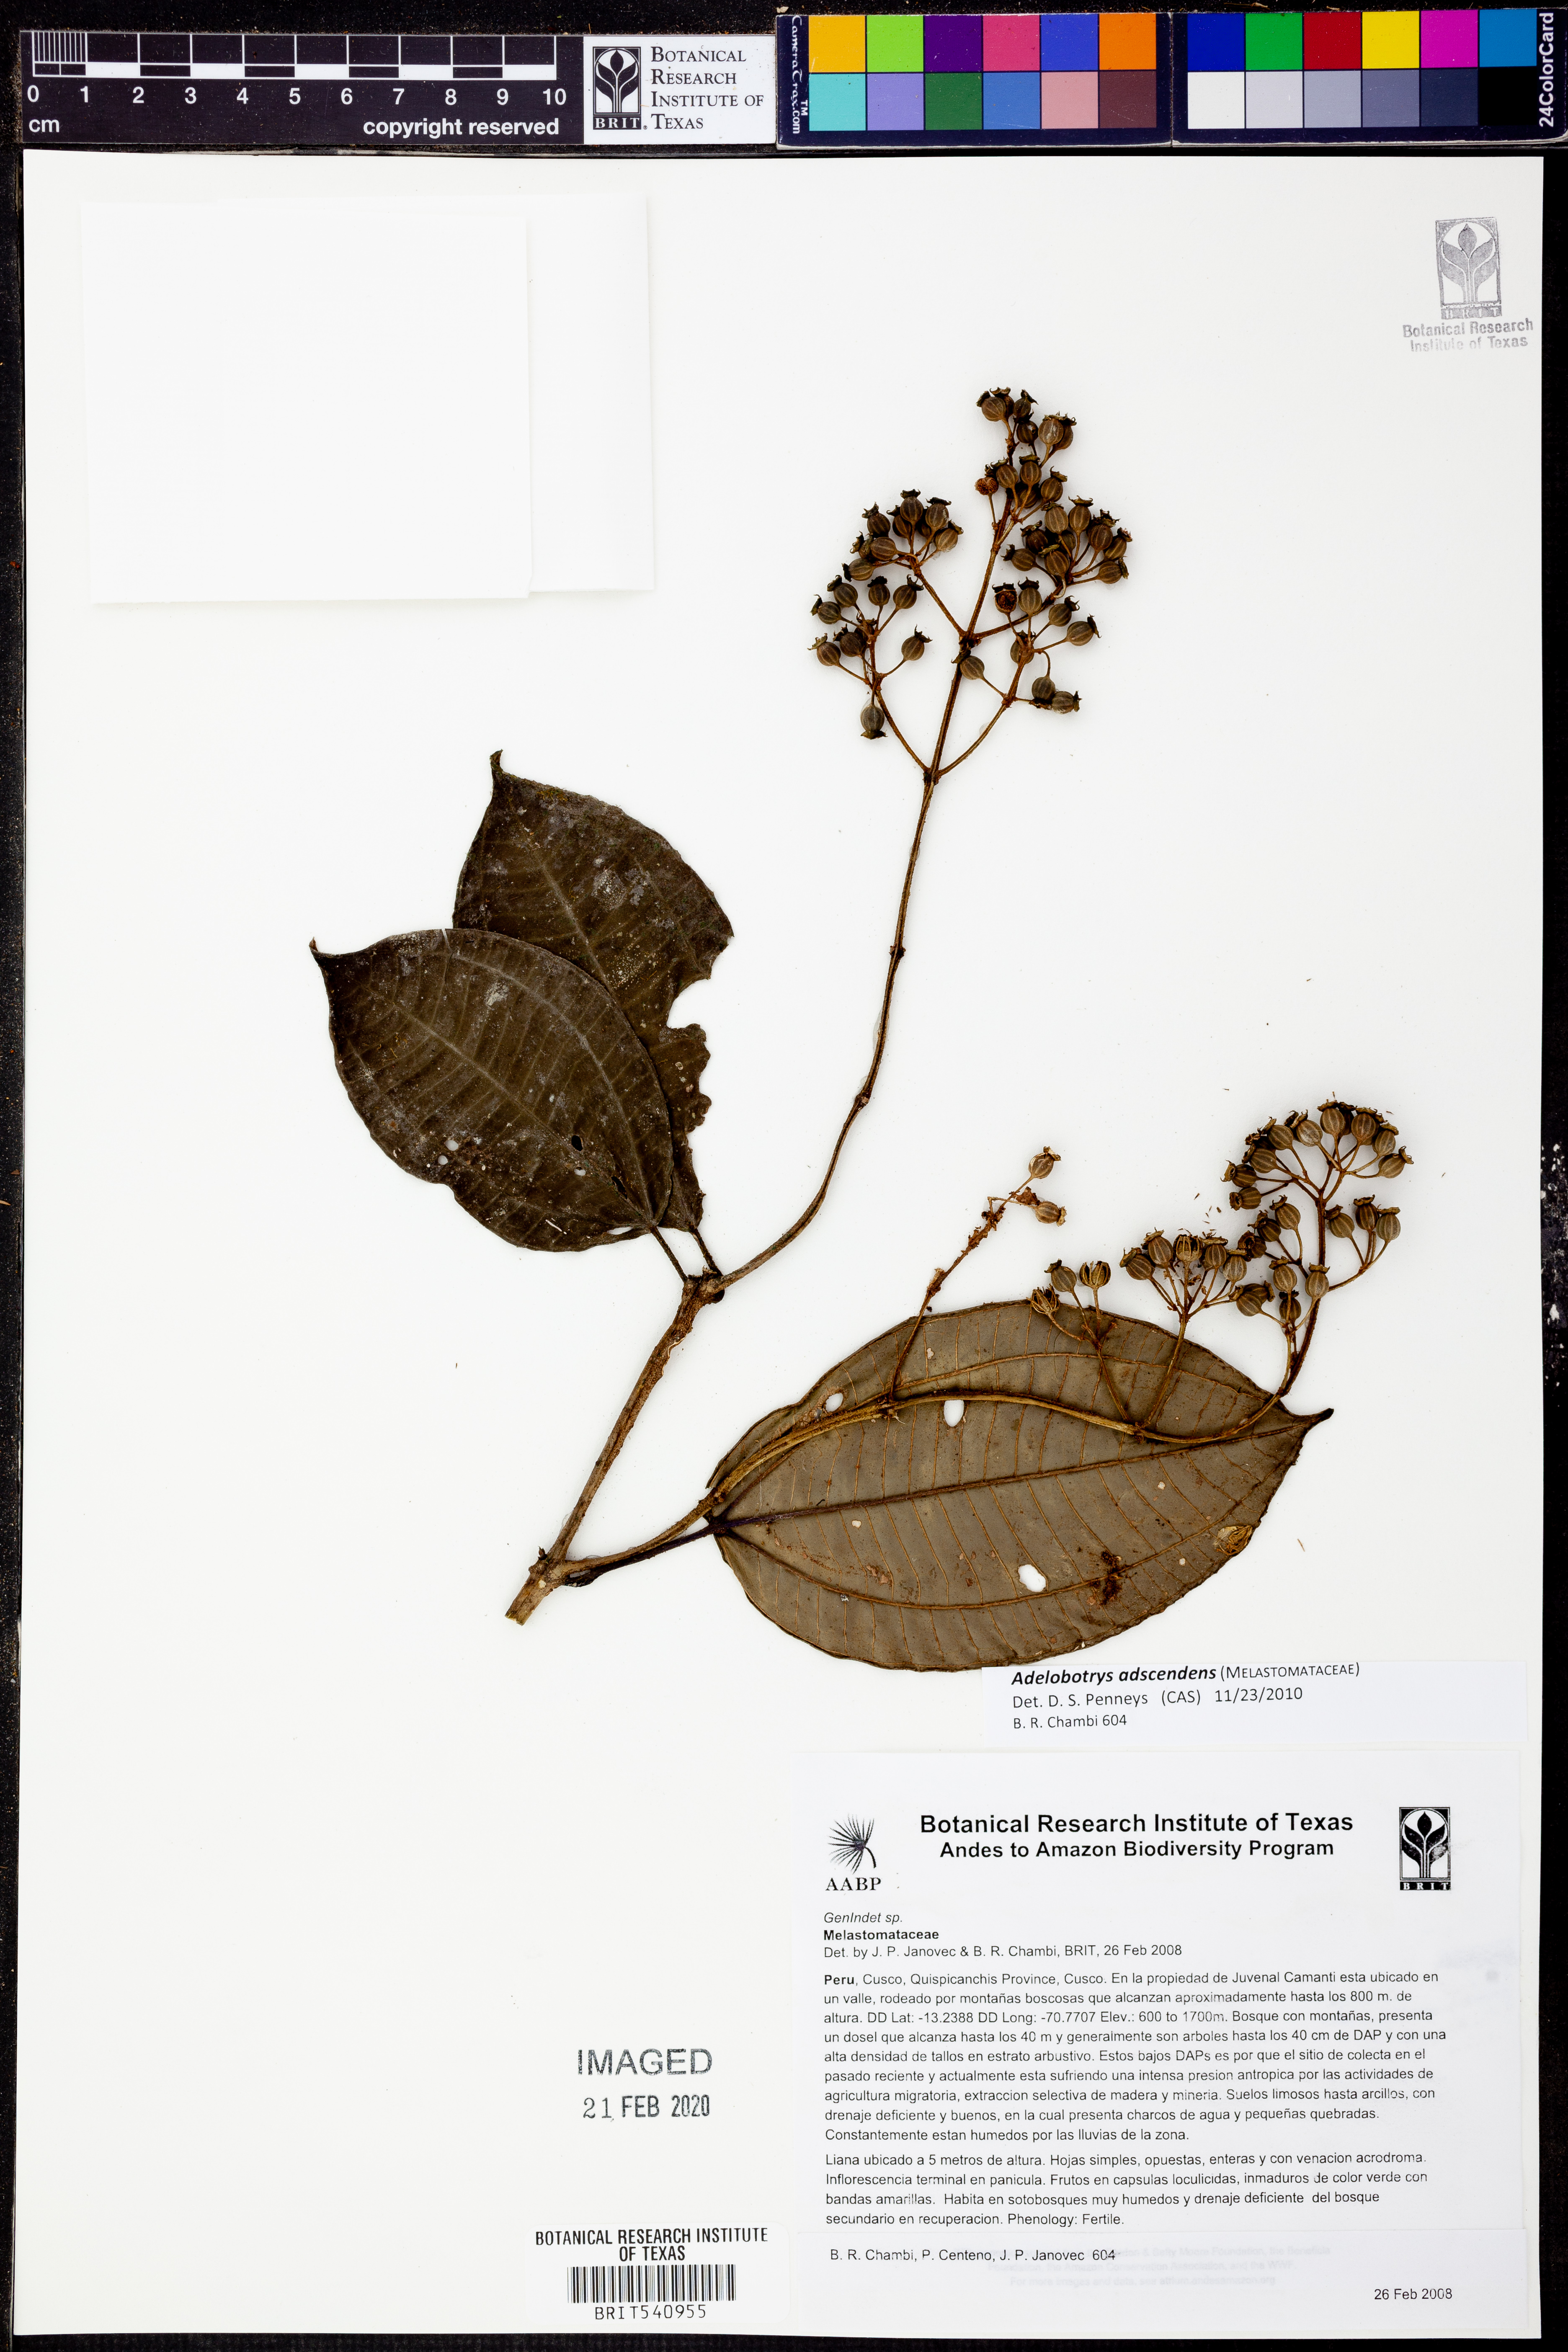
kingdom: Plantae
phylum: Tracheophyta
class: Magnoliopsida
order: Myrtales
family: Melastomataceae
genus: Adelobotrys
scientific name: Adelobotrys adscendens
